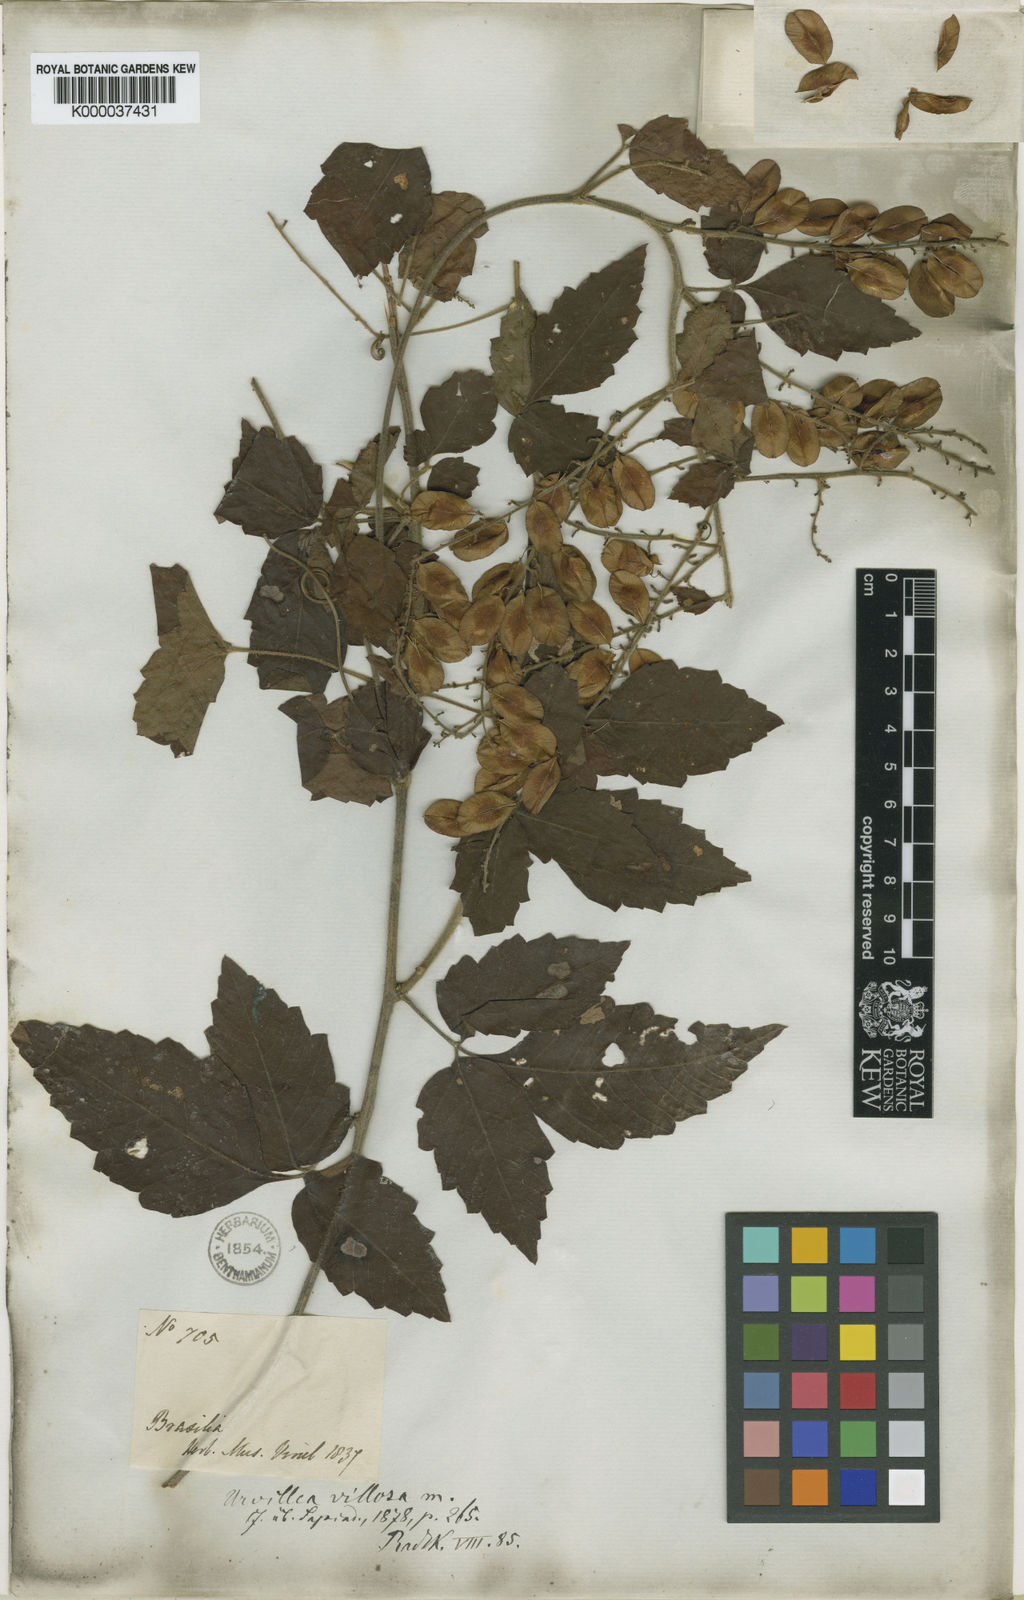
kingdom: Plantae
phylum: Tracheophyta
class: Magnoliopsida
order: Sapindales
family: Sapindaceae
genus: Urvillea
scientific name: Urvillea laevis
